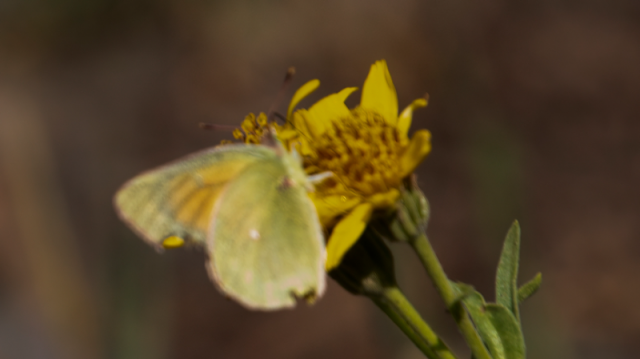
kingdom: Animalia
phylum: Arthropoda
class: Insecta
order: Lepidoptera
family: Pieridae
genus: Colias
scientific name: Colias meadii
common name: Mead's Sulphur
